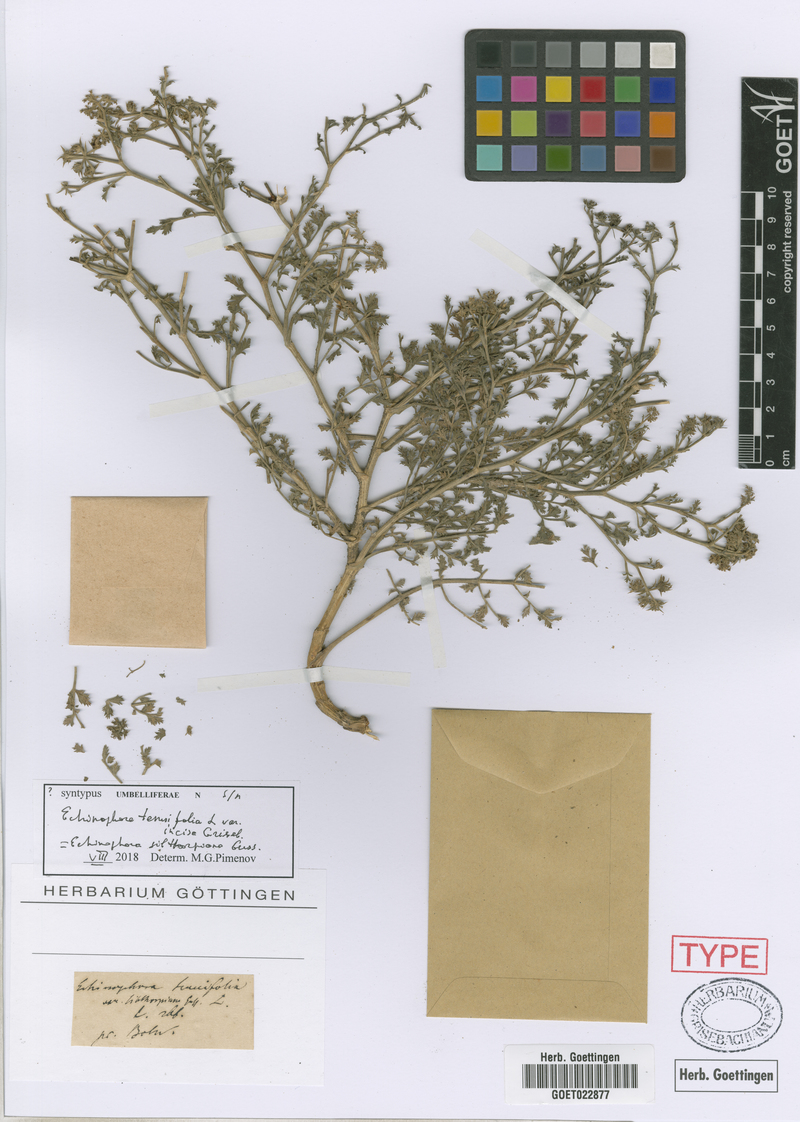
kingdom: Plantae
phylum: Tracheophyta
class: Magnoliopsida
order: Apiales
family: Apiaceae
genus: Echinophora
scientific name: Echinophora sibthorpiana
